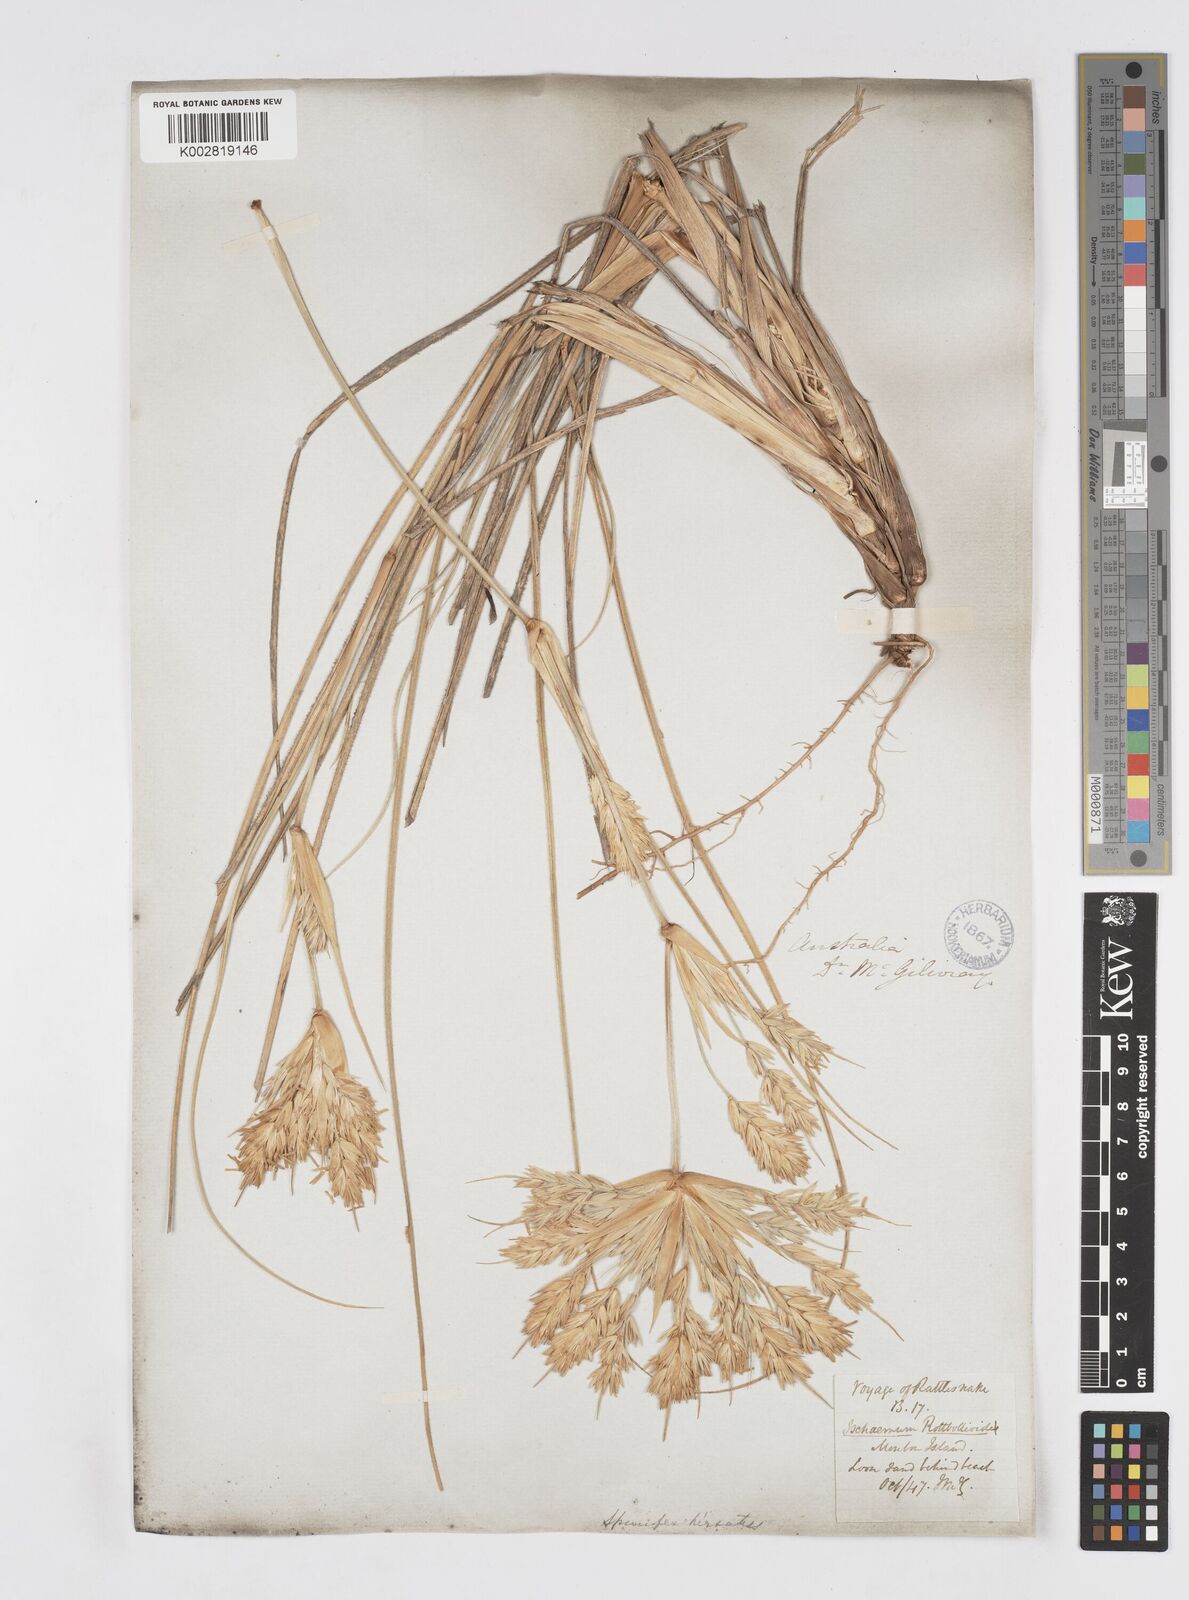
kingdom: Plantae
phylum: Tracheophyta
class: Liliopsida
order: Poales
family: Poaceae
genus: Spinifex
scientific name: Spinifex hirsutus
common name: Hairy spinifex
